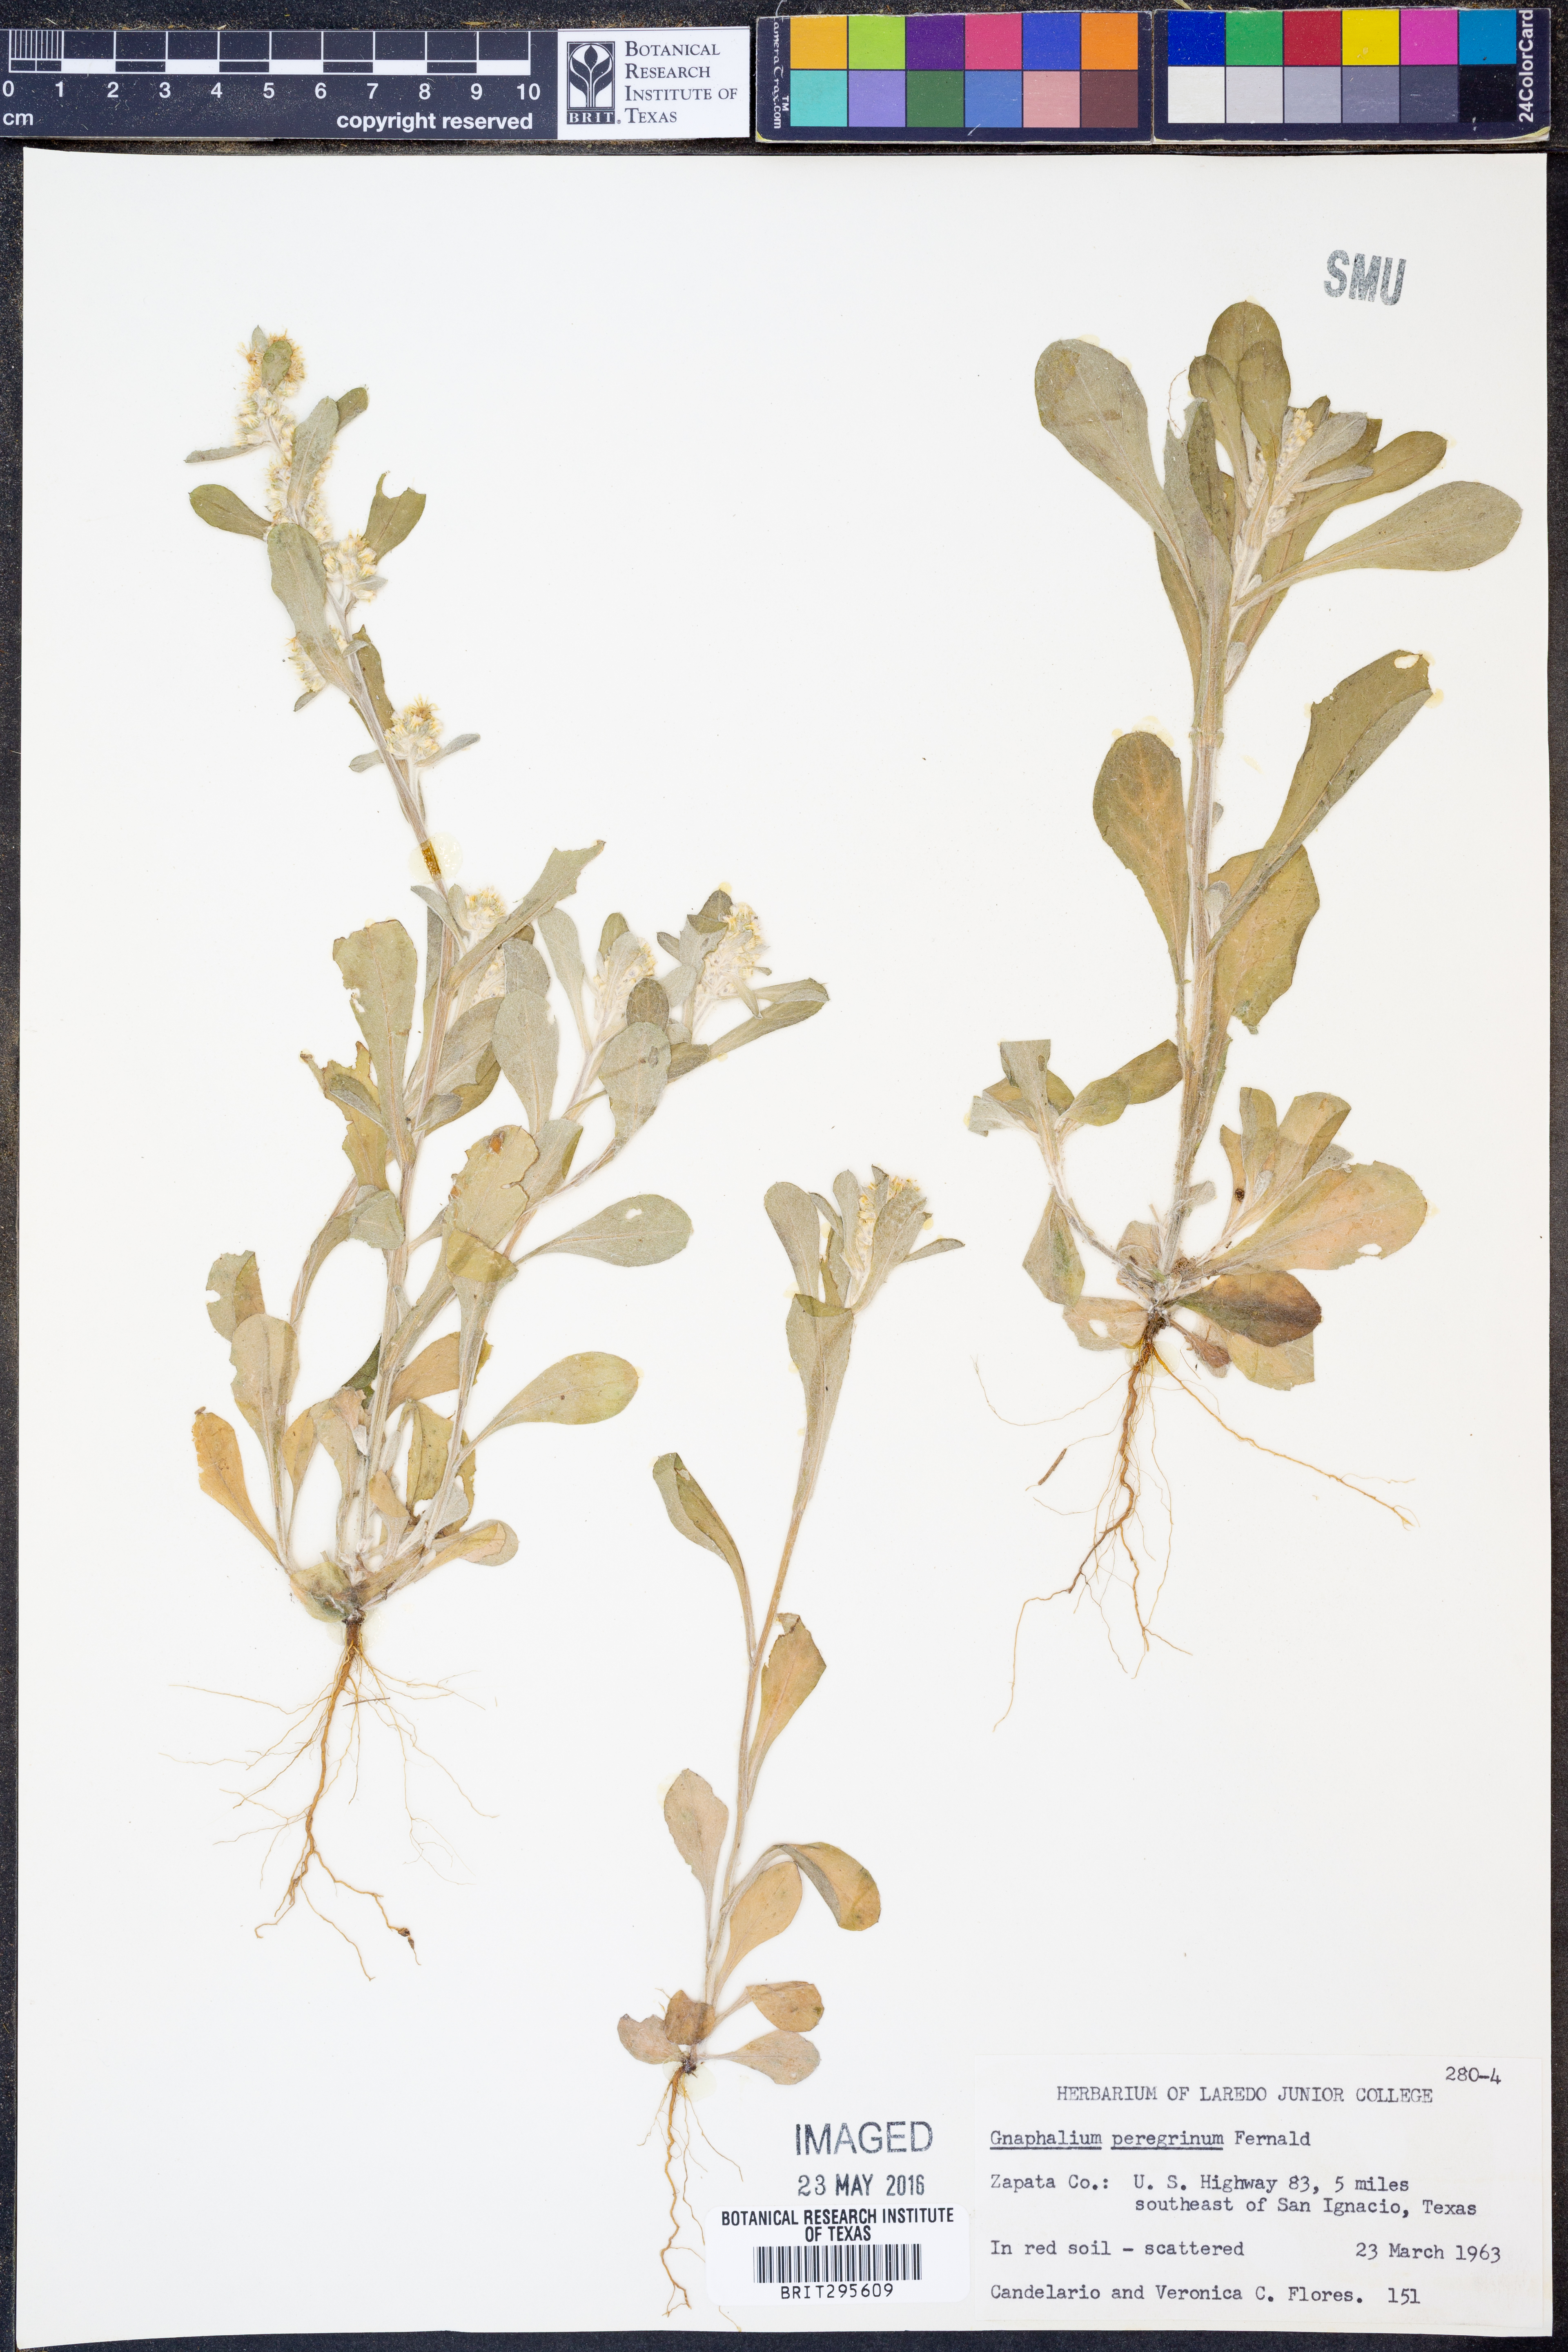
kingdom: Plantae
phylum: Tracheophyta
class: Magnoliopsida
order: Asterales
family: Asteraceae
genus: Gamochaeta
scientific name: Gamochaeta pensylvanica
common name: Pennsylvania everlasting
